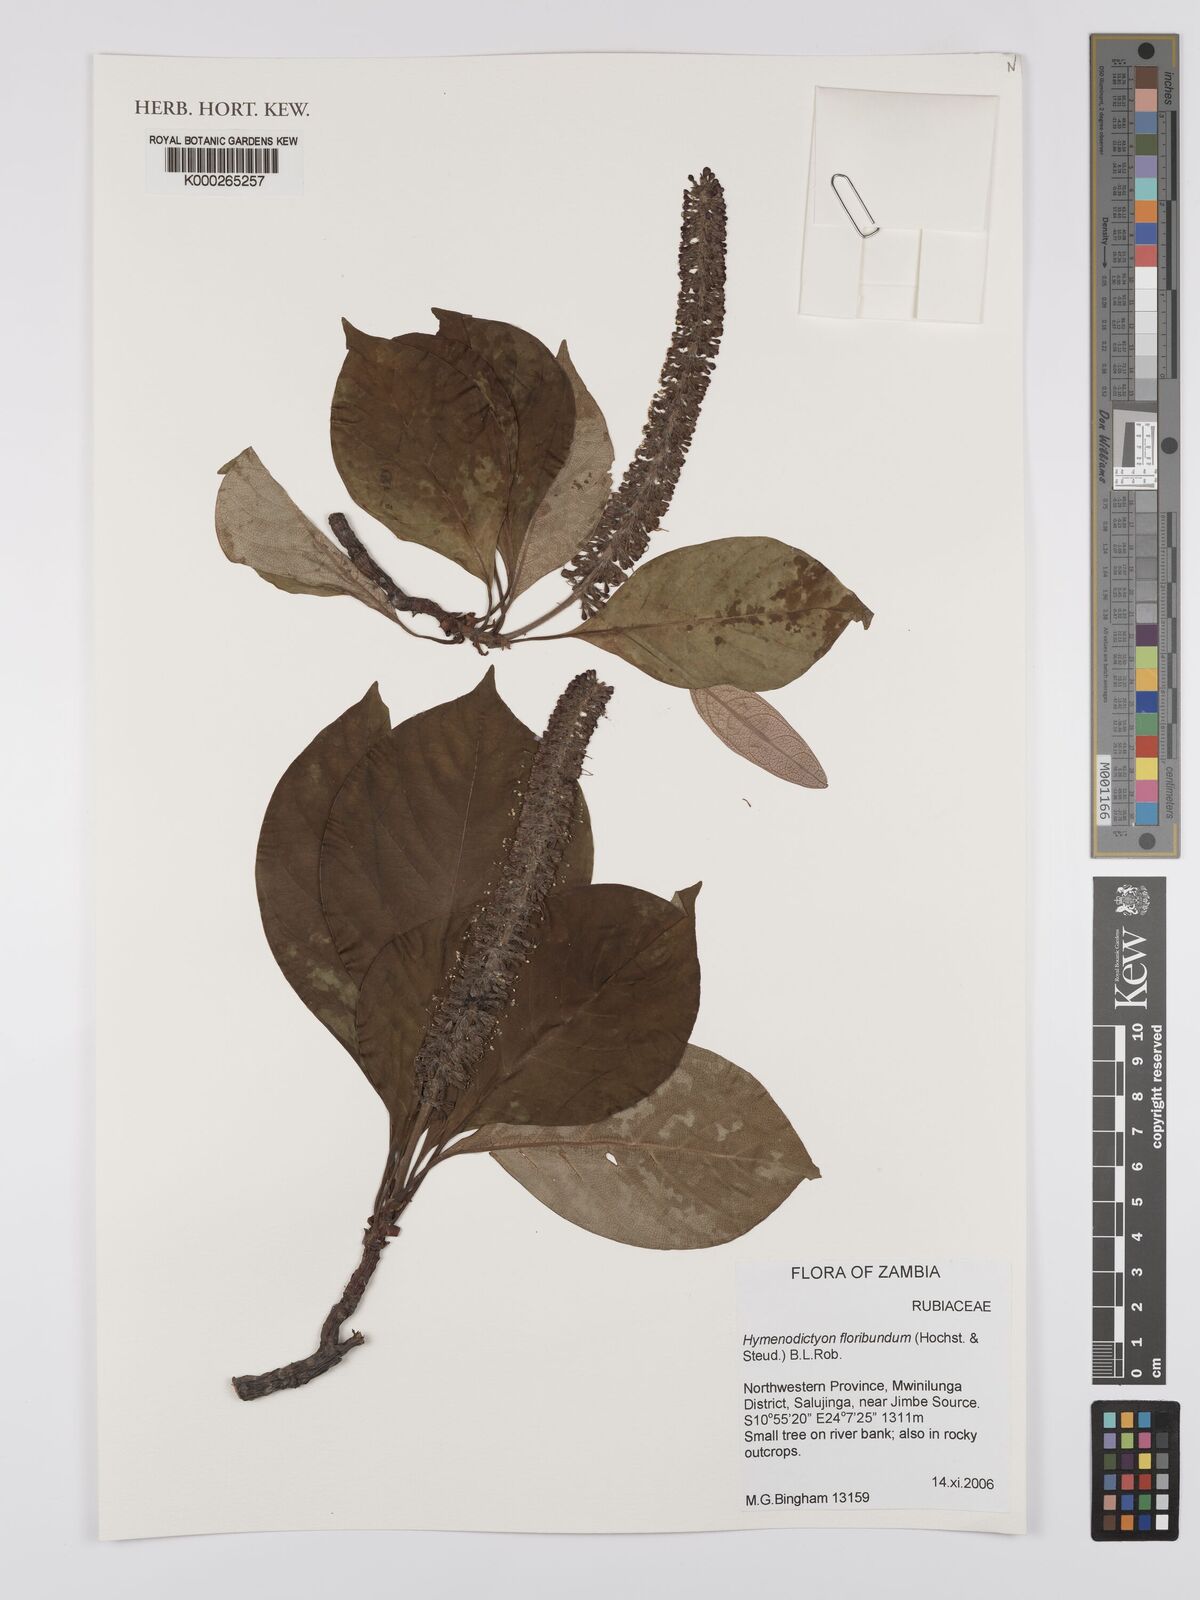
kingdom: Plantae
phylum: Tracheophyta
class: Magnoliopsida
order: Gentianales
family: Rubiaceae
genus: Hymenodictyon
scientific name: Hymenodictyon floribundum
